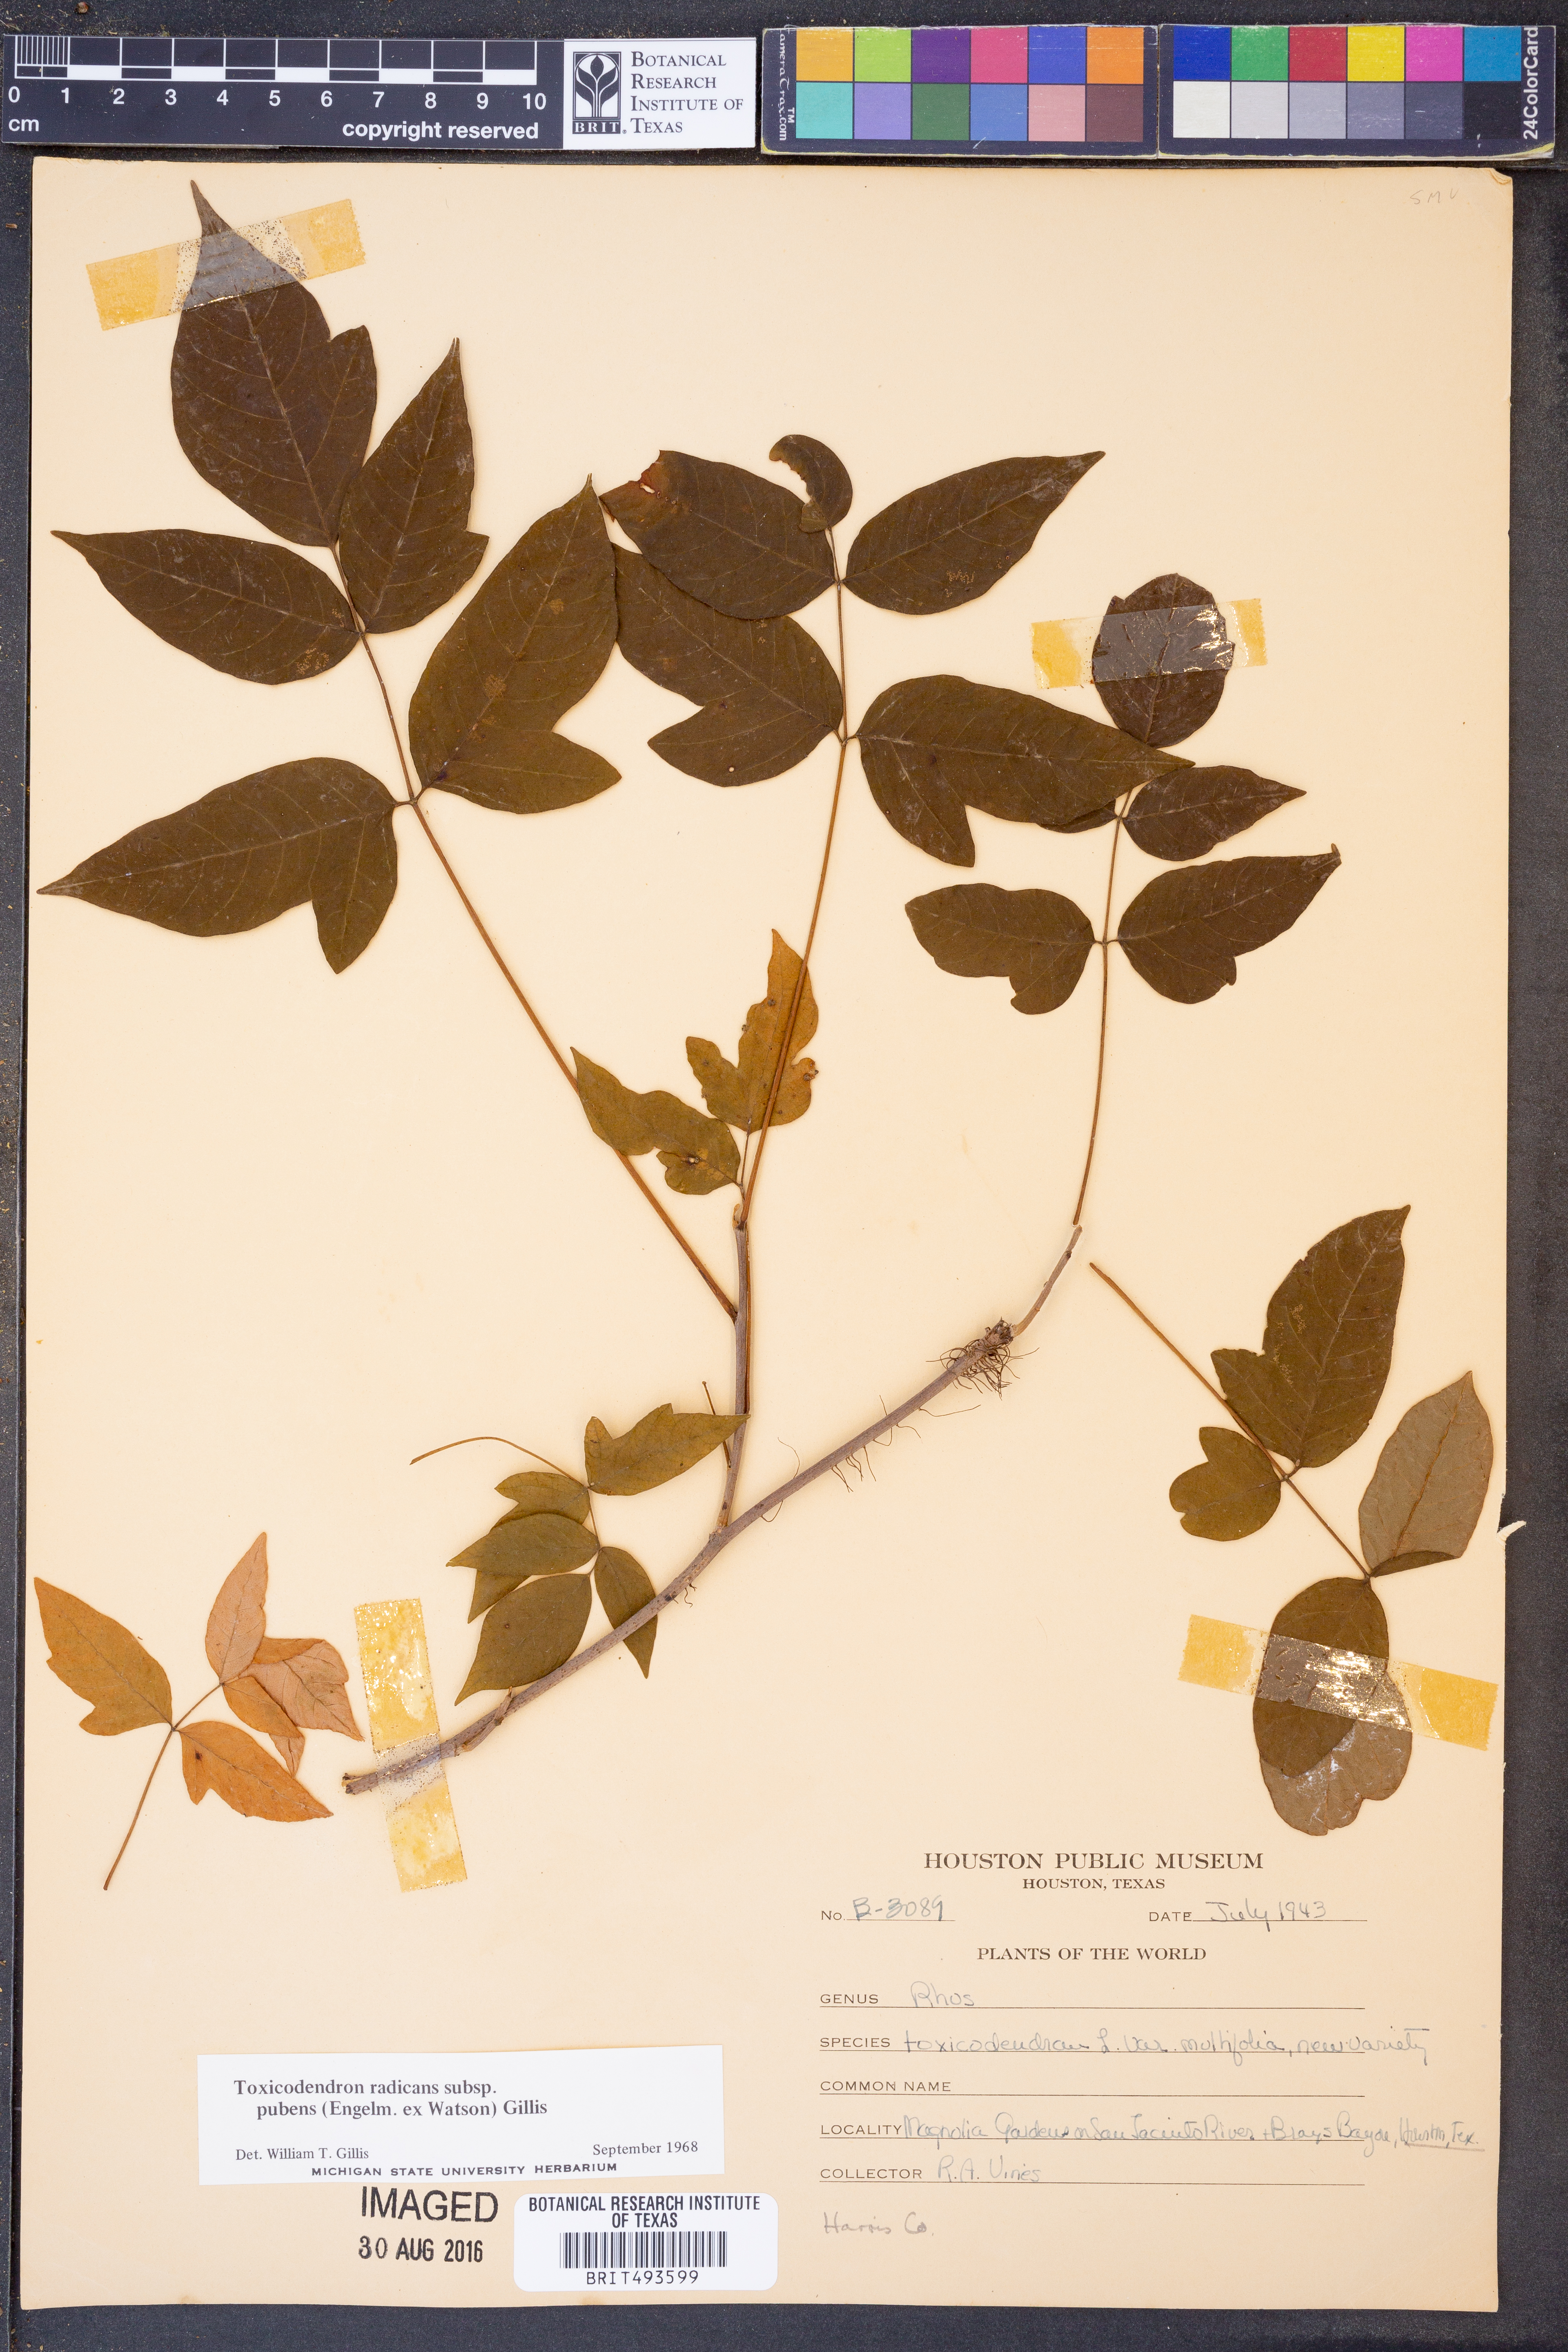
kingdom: Plantae
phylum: Tracheophyta
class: Magnoliopsida
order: Sapindales
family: Anacardiaceae
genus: Toxicodendron
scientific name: Toxicodendron radicans
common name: Poison ivy
